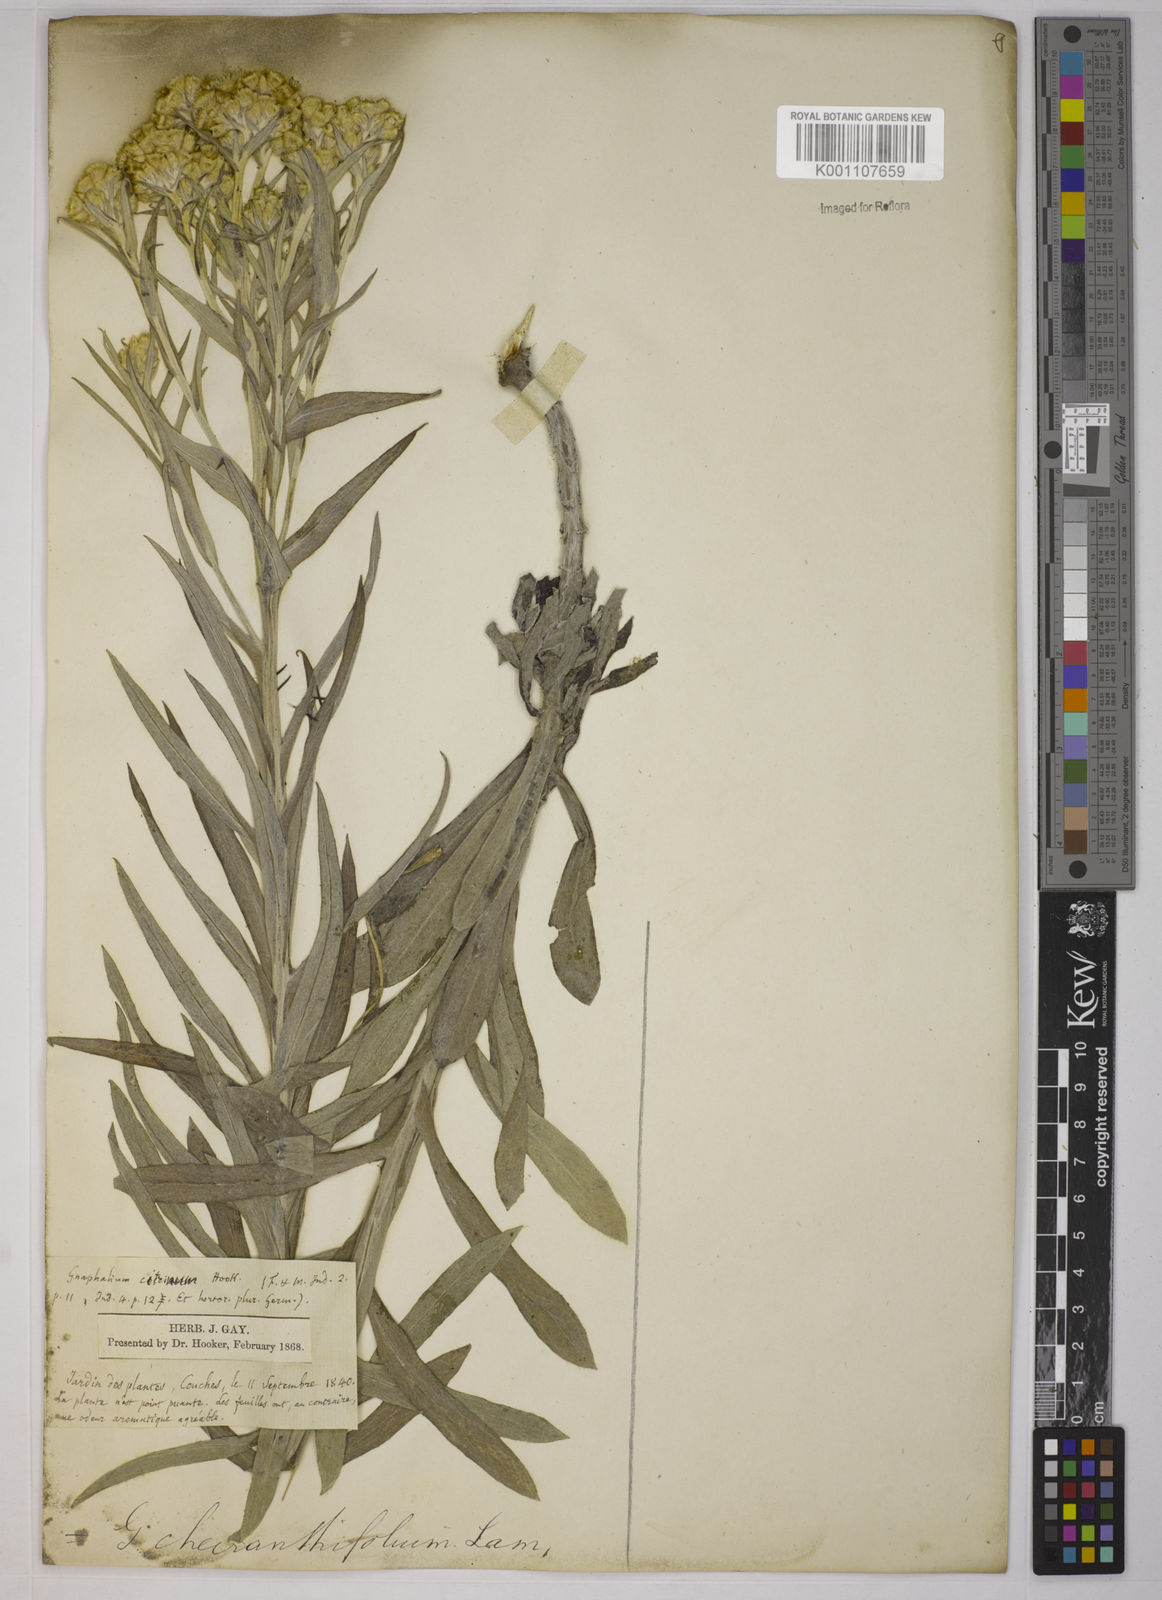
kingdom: Plantae
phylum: Tracheophyta
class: Magnoliopsida
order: Asterales
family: Asteraceae
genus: Pseudognaphalium
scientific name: Pseudognaphalium cheiranthifolium
